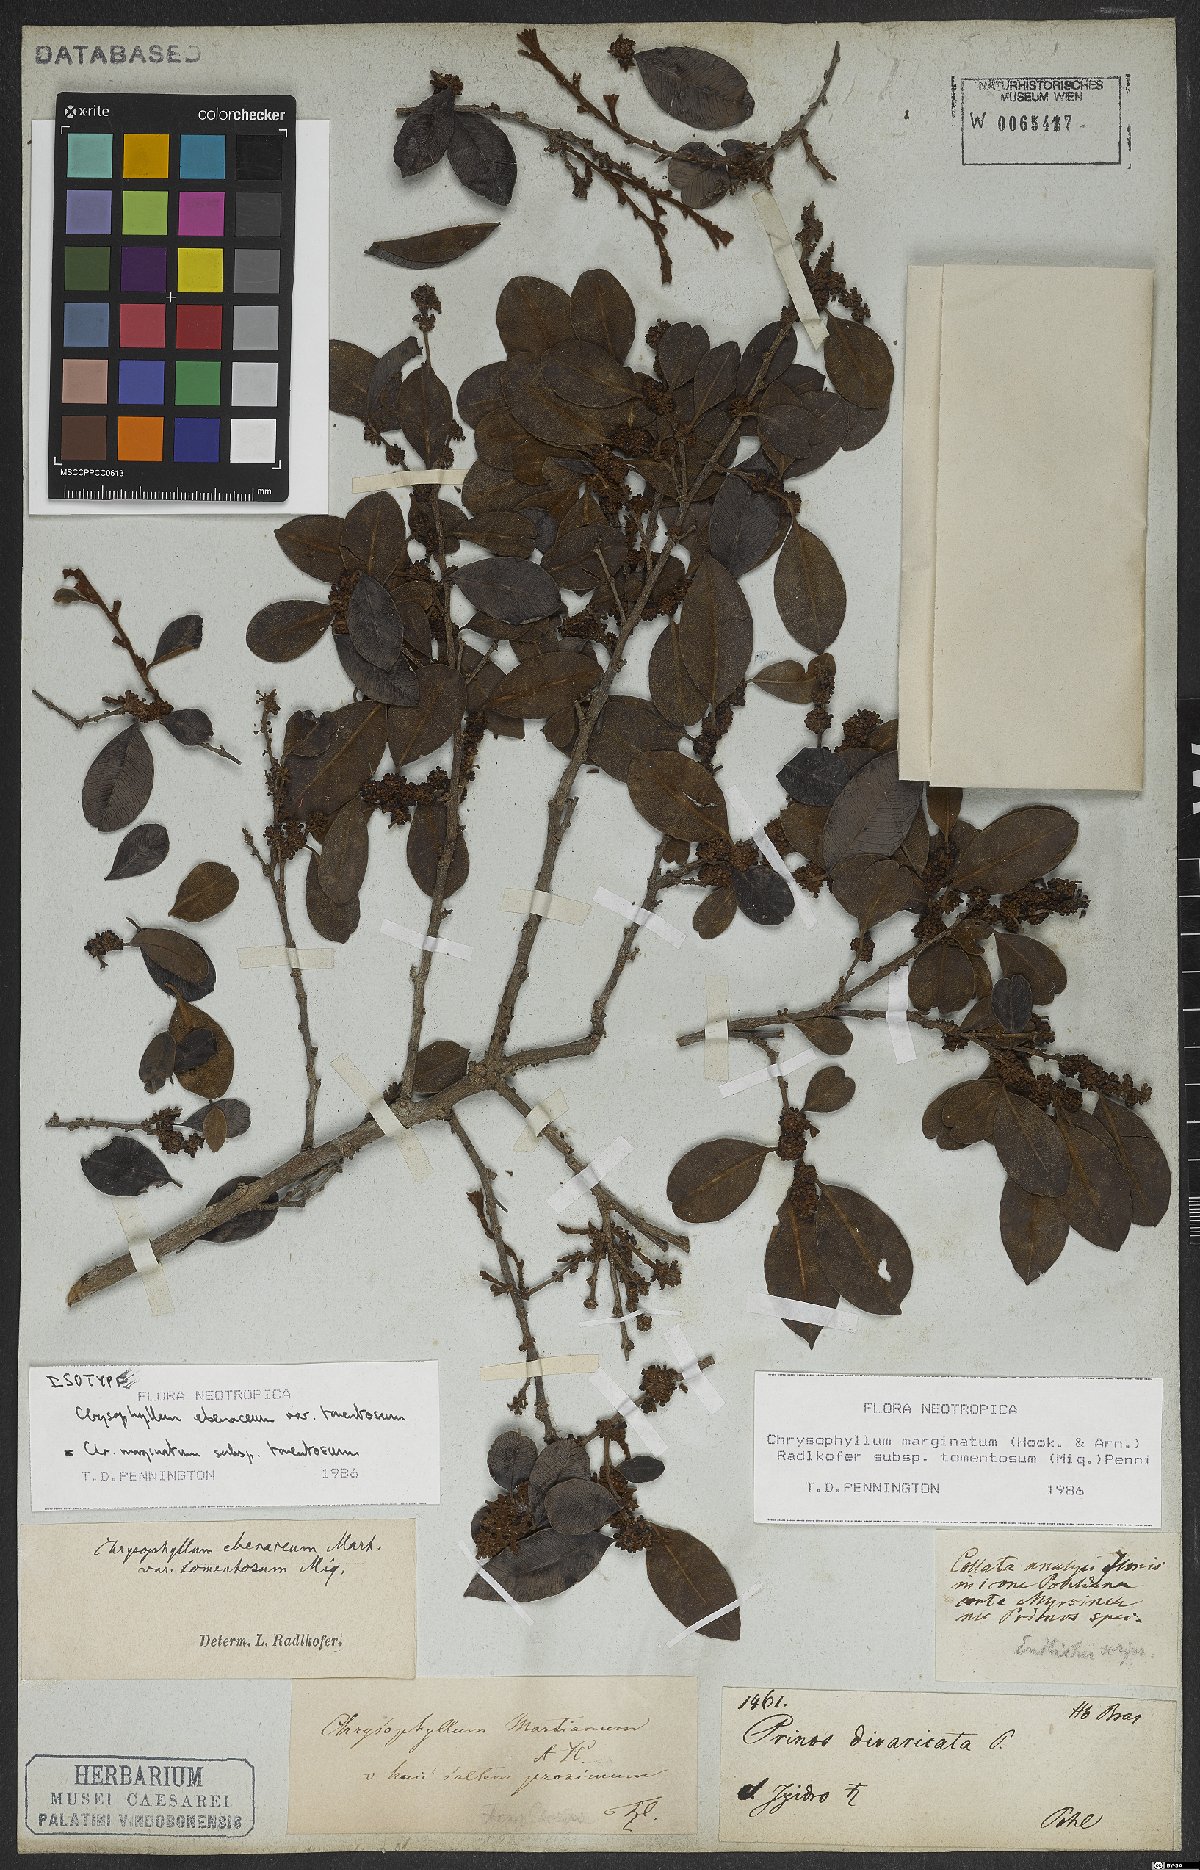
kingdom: Plantae
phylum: Tracheophyta
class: Magnoliopsida
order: Ericales
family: Sapotaceae
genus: Chrysophyllum
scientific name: Chrysophyllum marginatum
